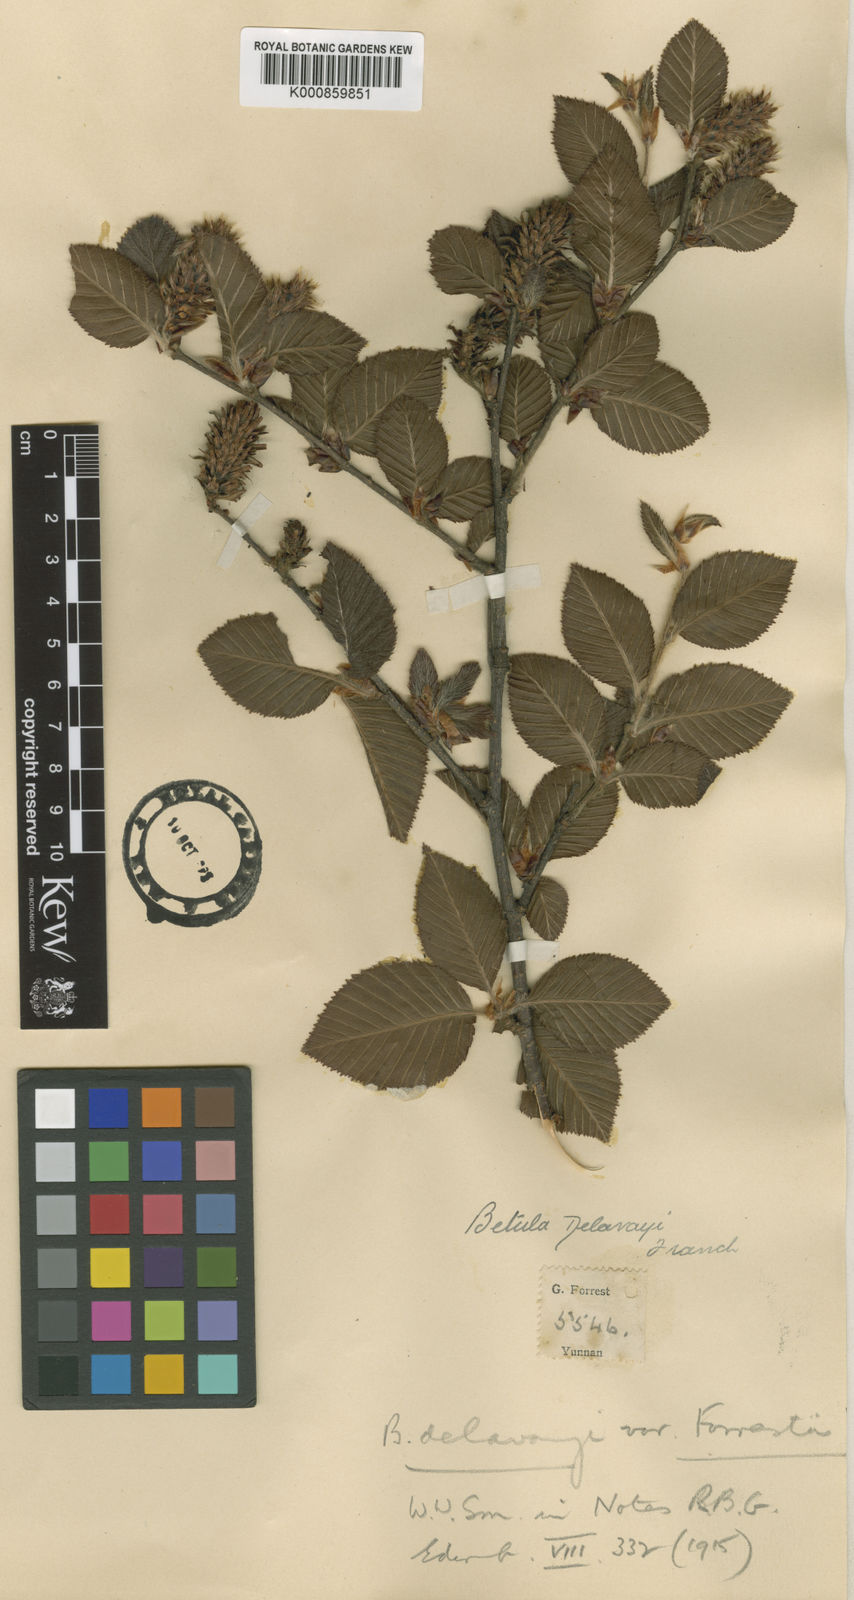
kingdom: Plantae
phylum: Tracheophyta
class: Magnoliopsida
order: Fagales
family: Betulaceae
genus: Betula
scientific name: Betula delavayi
